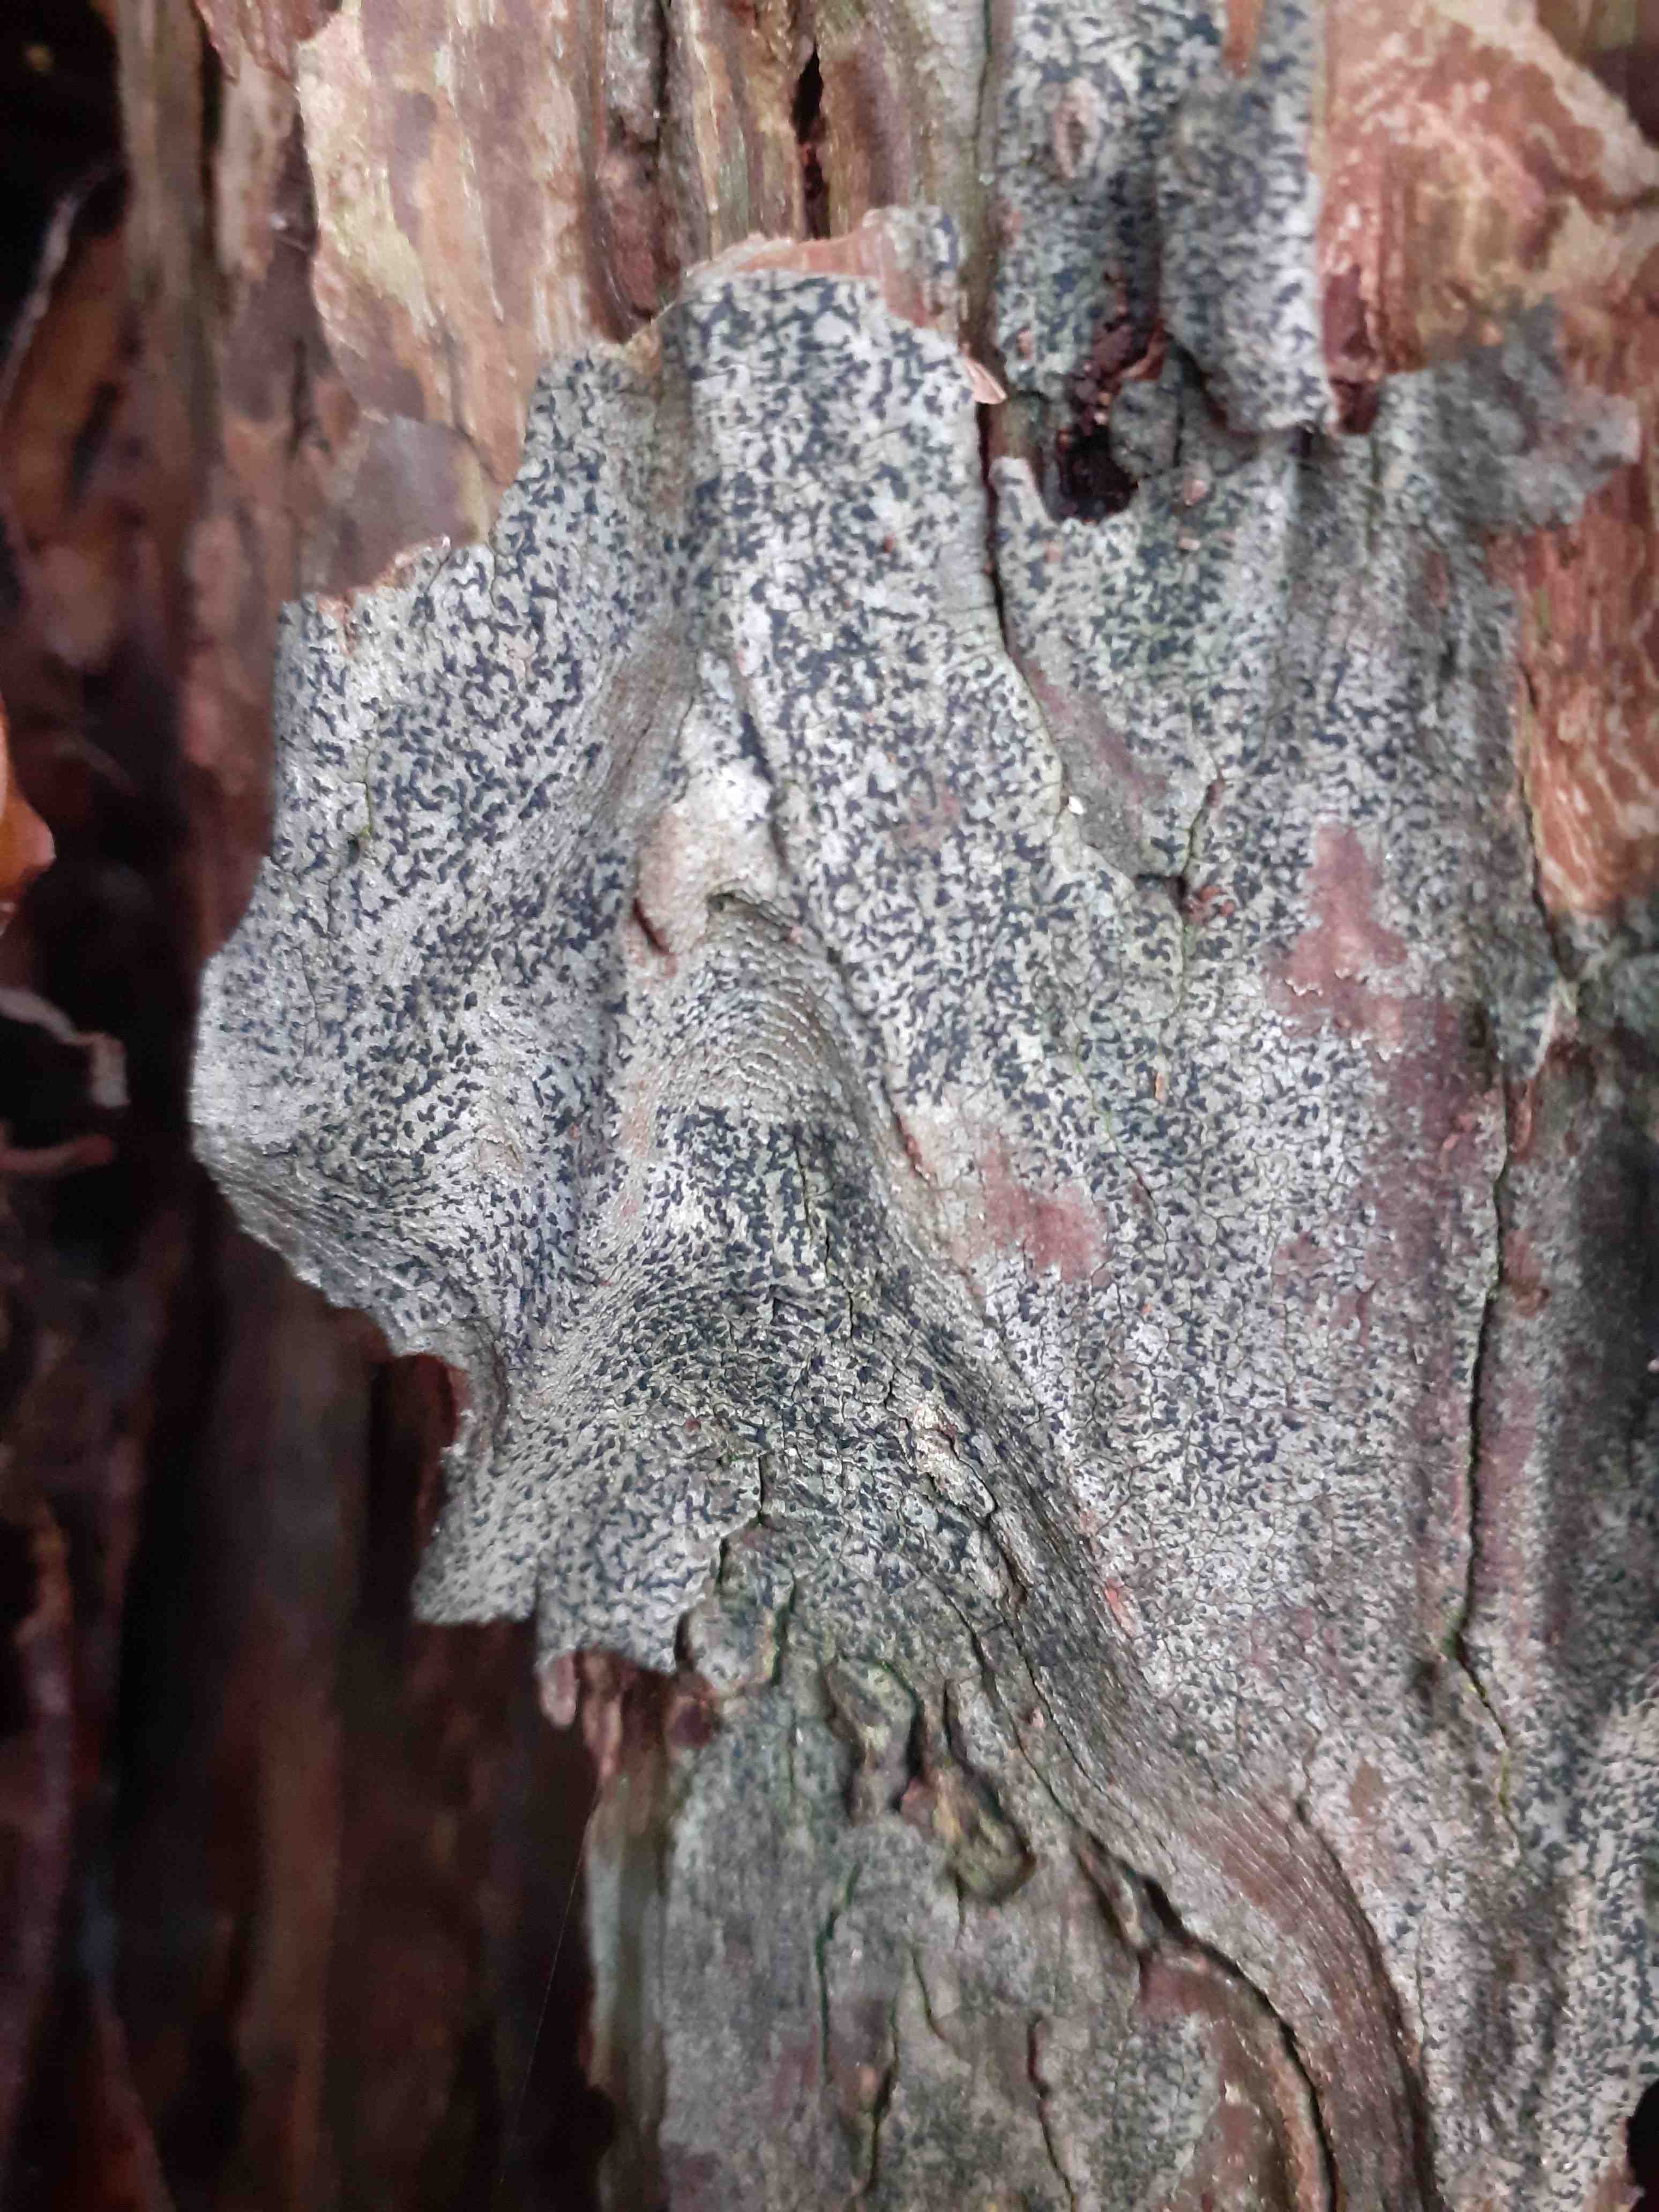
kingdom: Fungi
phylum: Ascomycota
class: Arthoniomycetes
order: Arthoniales
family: Opegraphaceae
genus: Opegrapha
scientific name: Opegrapha
